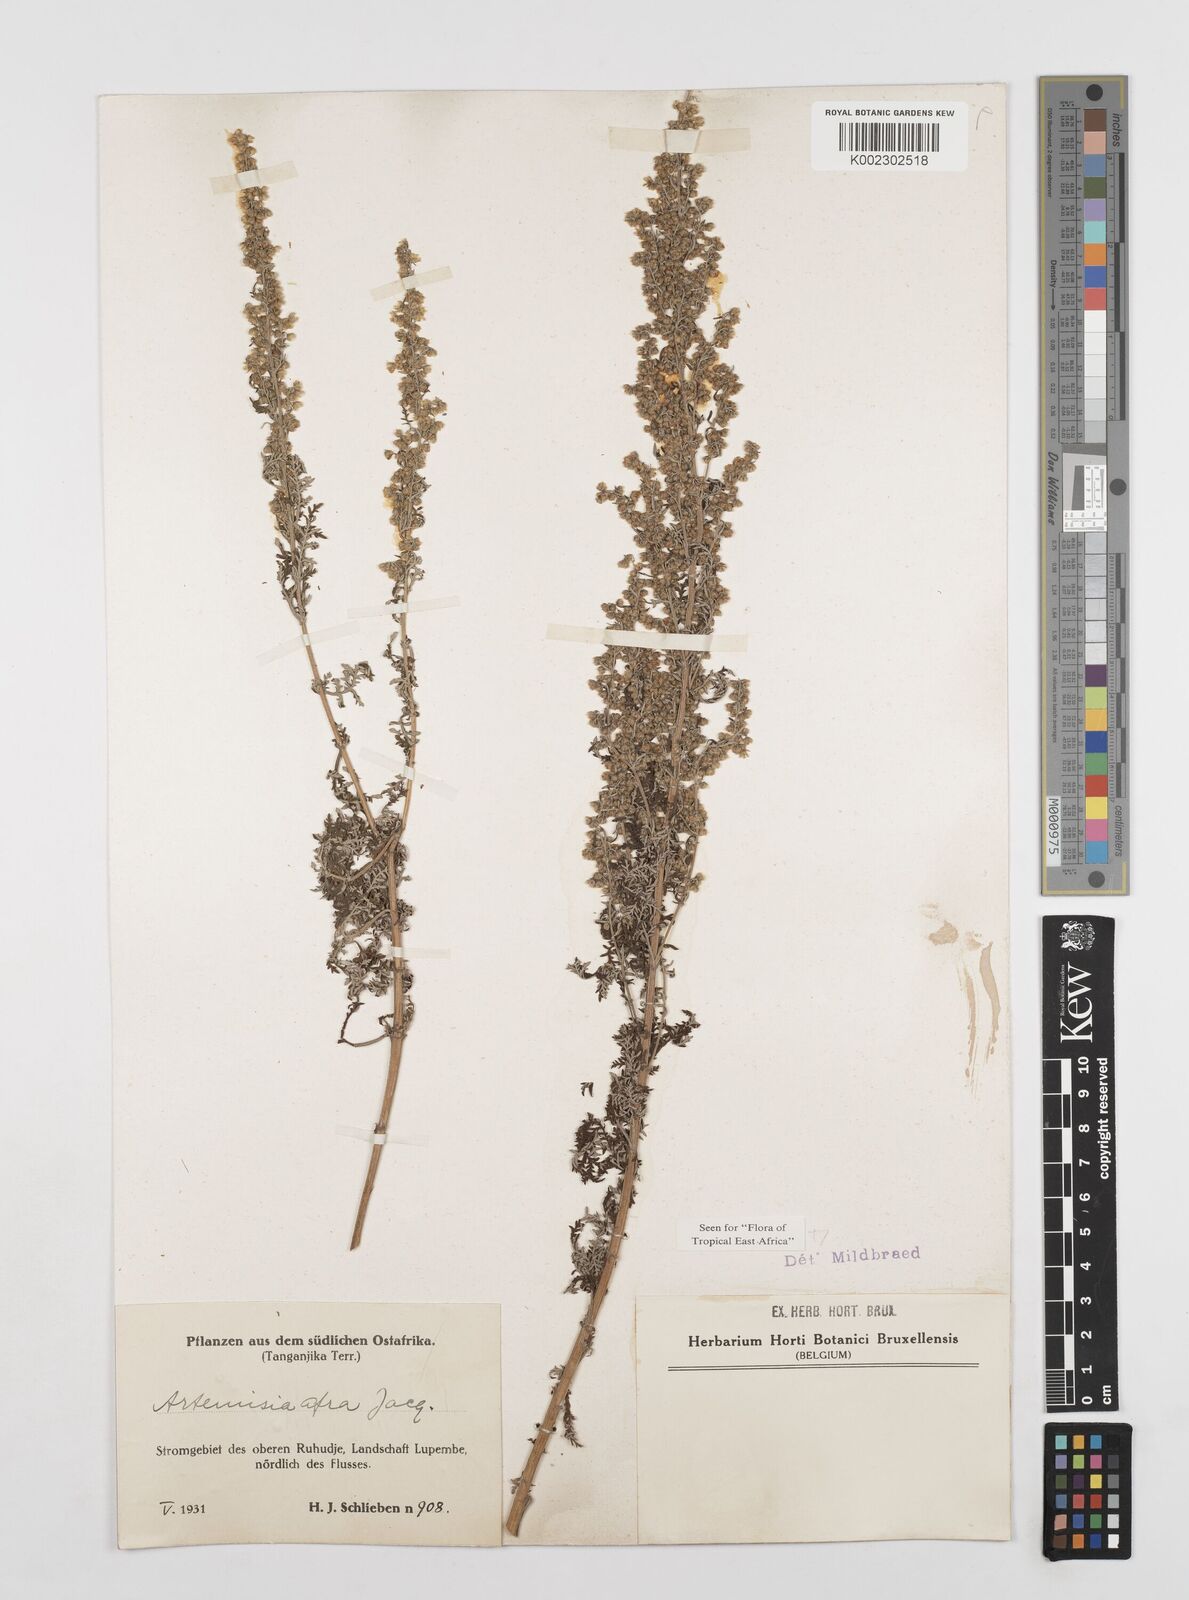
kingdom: Plantae
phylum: Tracheophyta
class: Magnoliopsida
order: Asterales
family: Asteraceae
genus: Artemisia
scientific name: Artemisia afra
